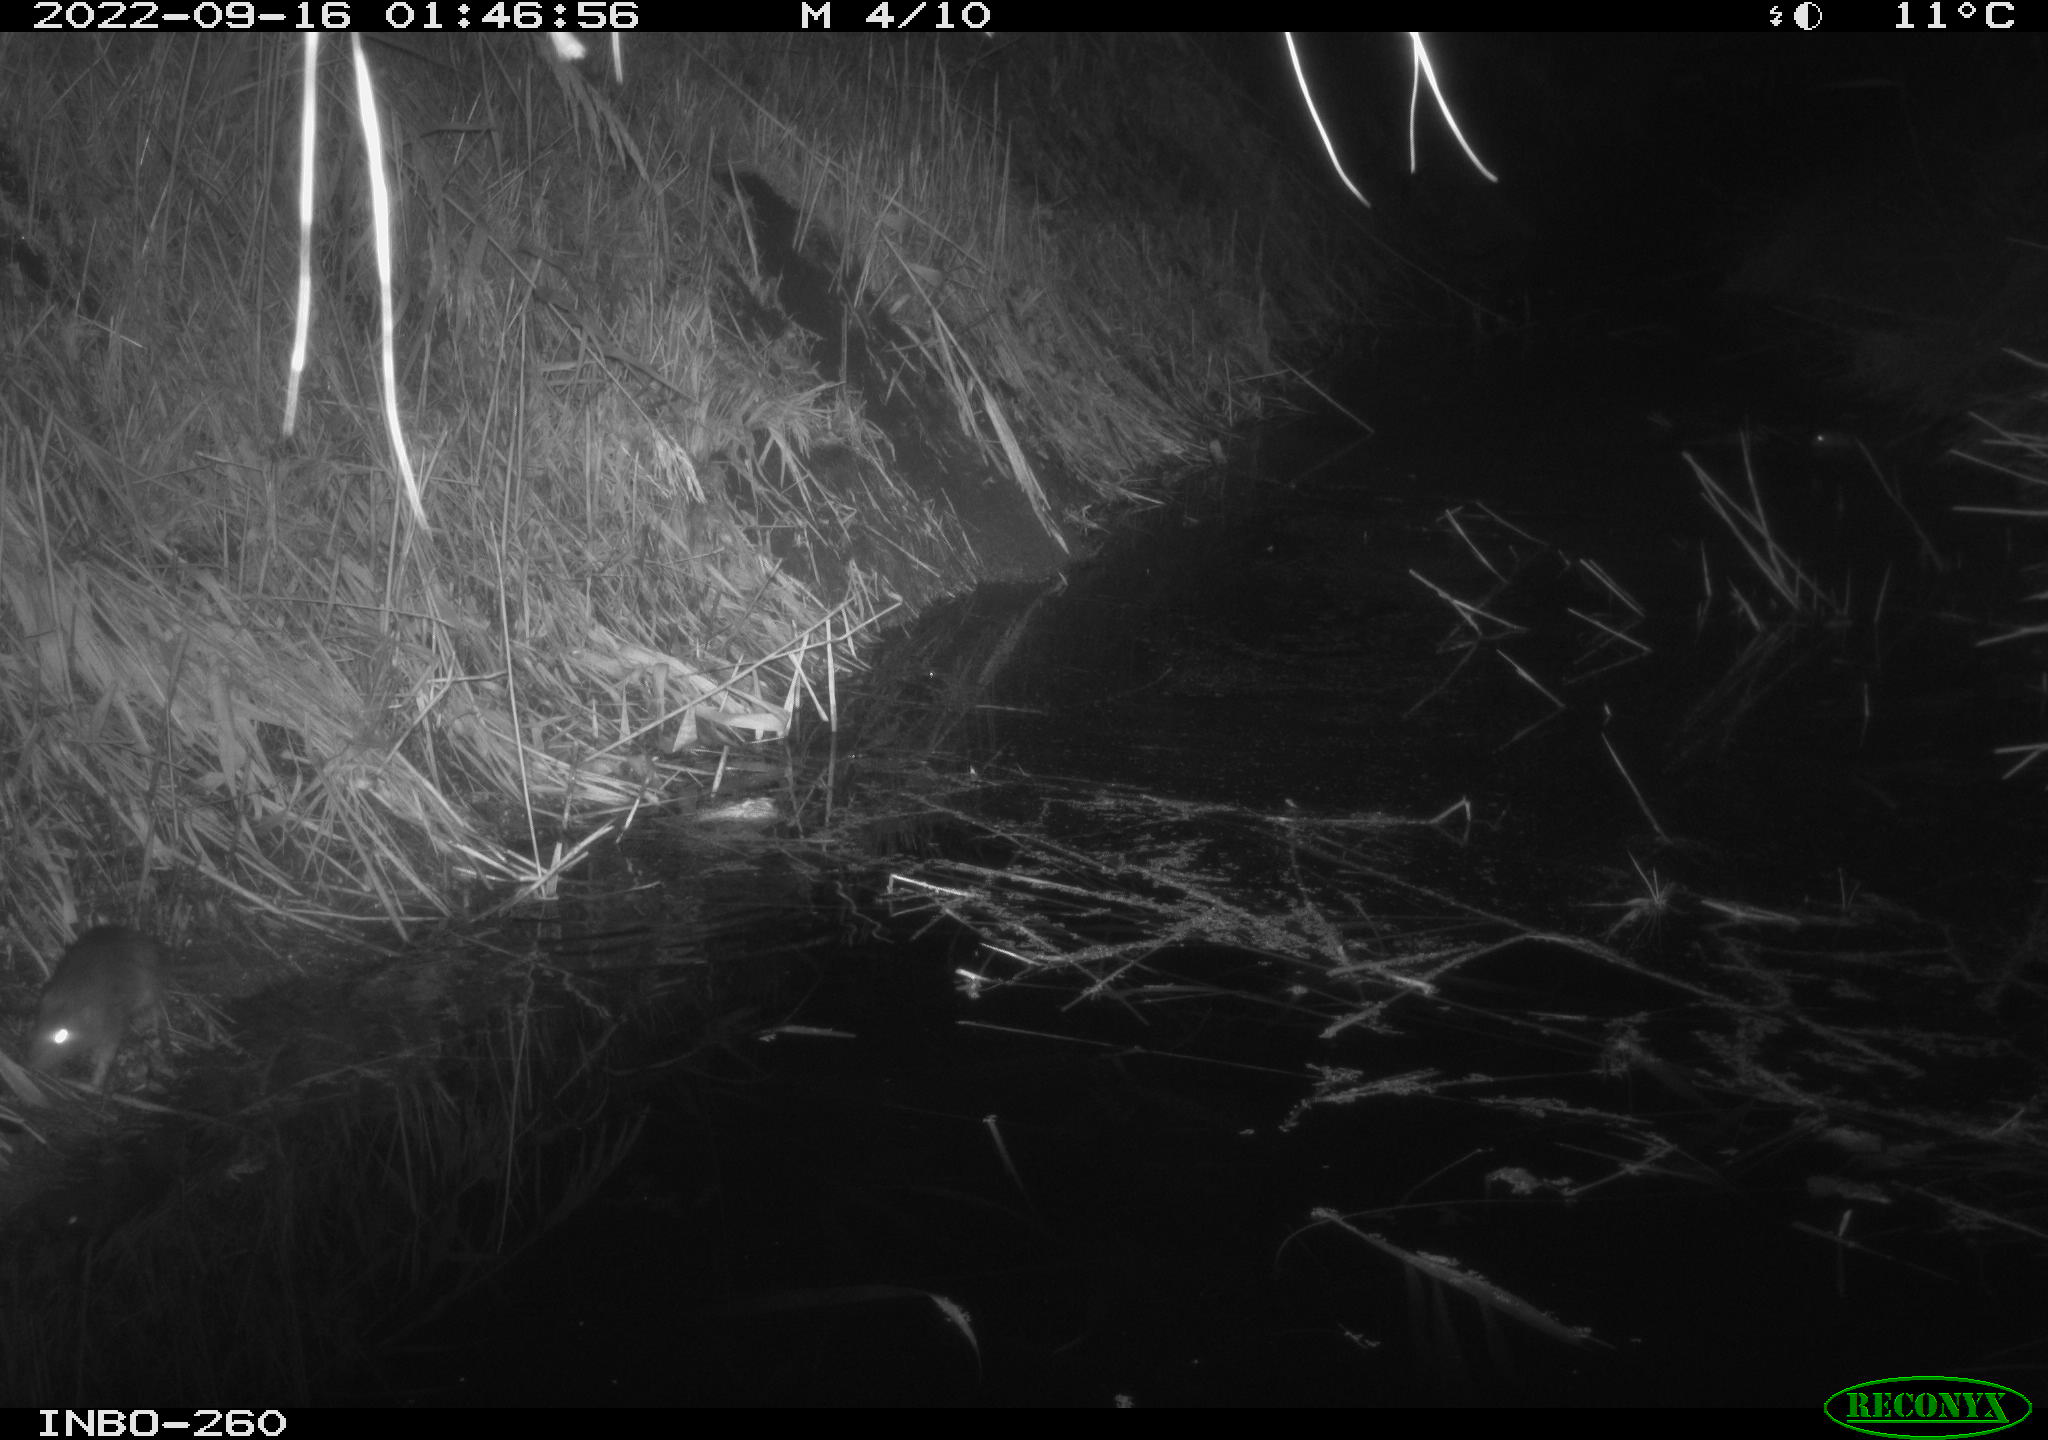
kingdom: Animalia
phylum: Chordata
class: Mammalia
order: Rodentia
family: Muridae
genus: Rattus
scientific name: Rattus norvegicus
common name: Brown rat
